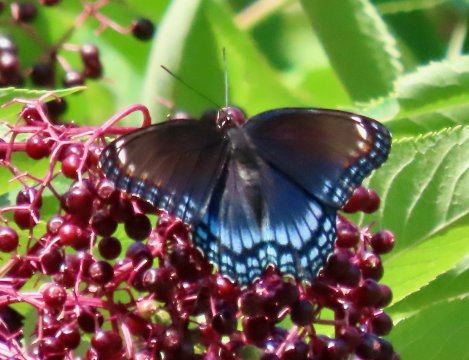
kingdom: Animalia
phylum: Arthropoda
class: Insecta
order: Lepidoptera
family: Nymphalidae
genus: Limenitis
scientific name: Limenitis arthemis
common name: Red-spotted Admiral
